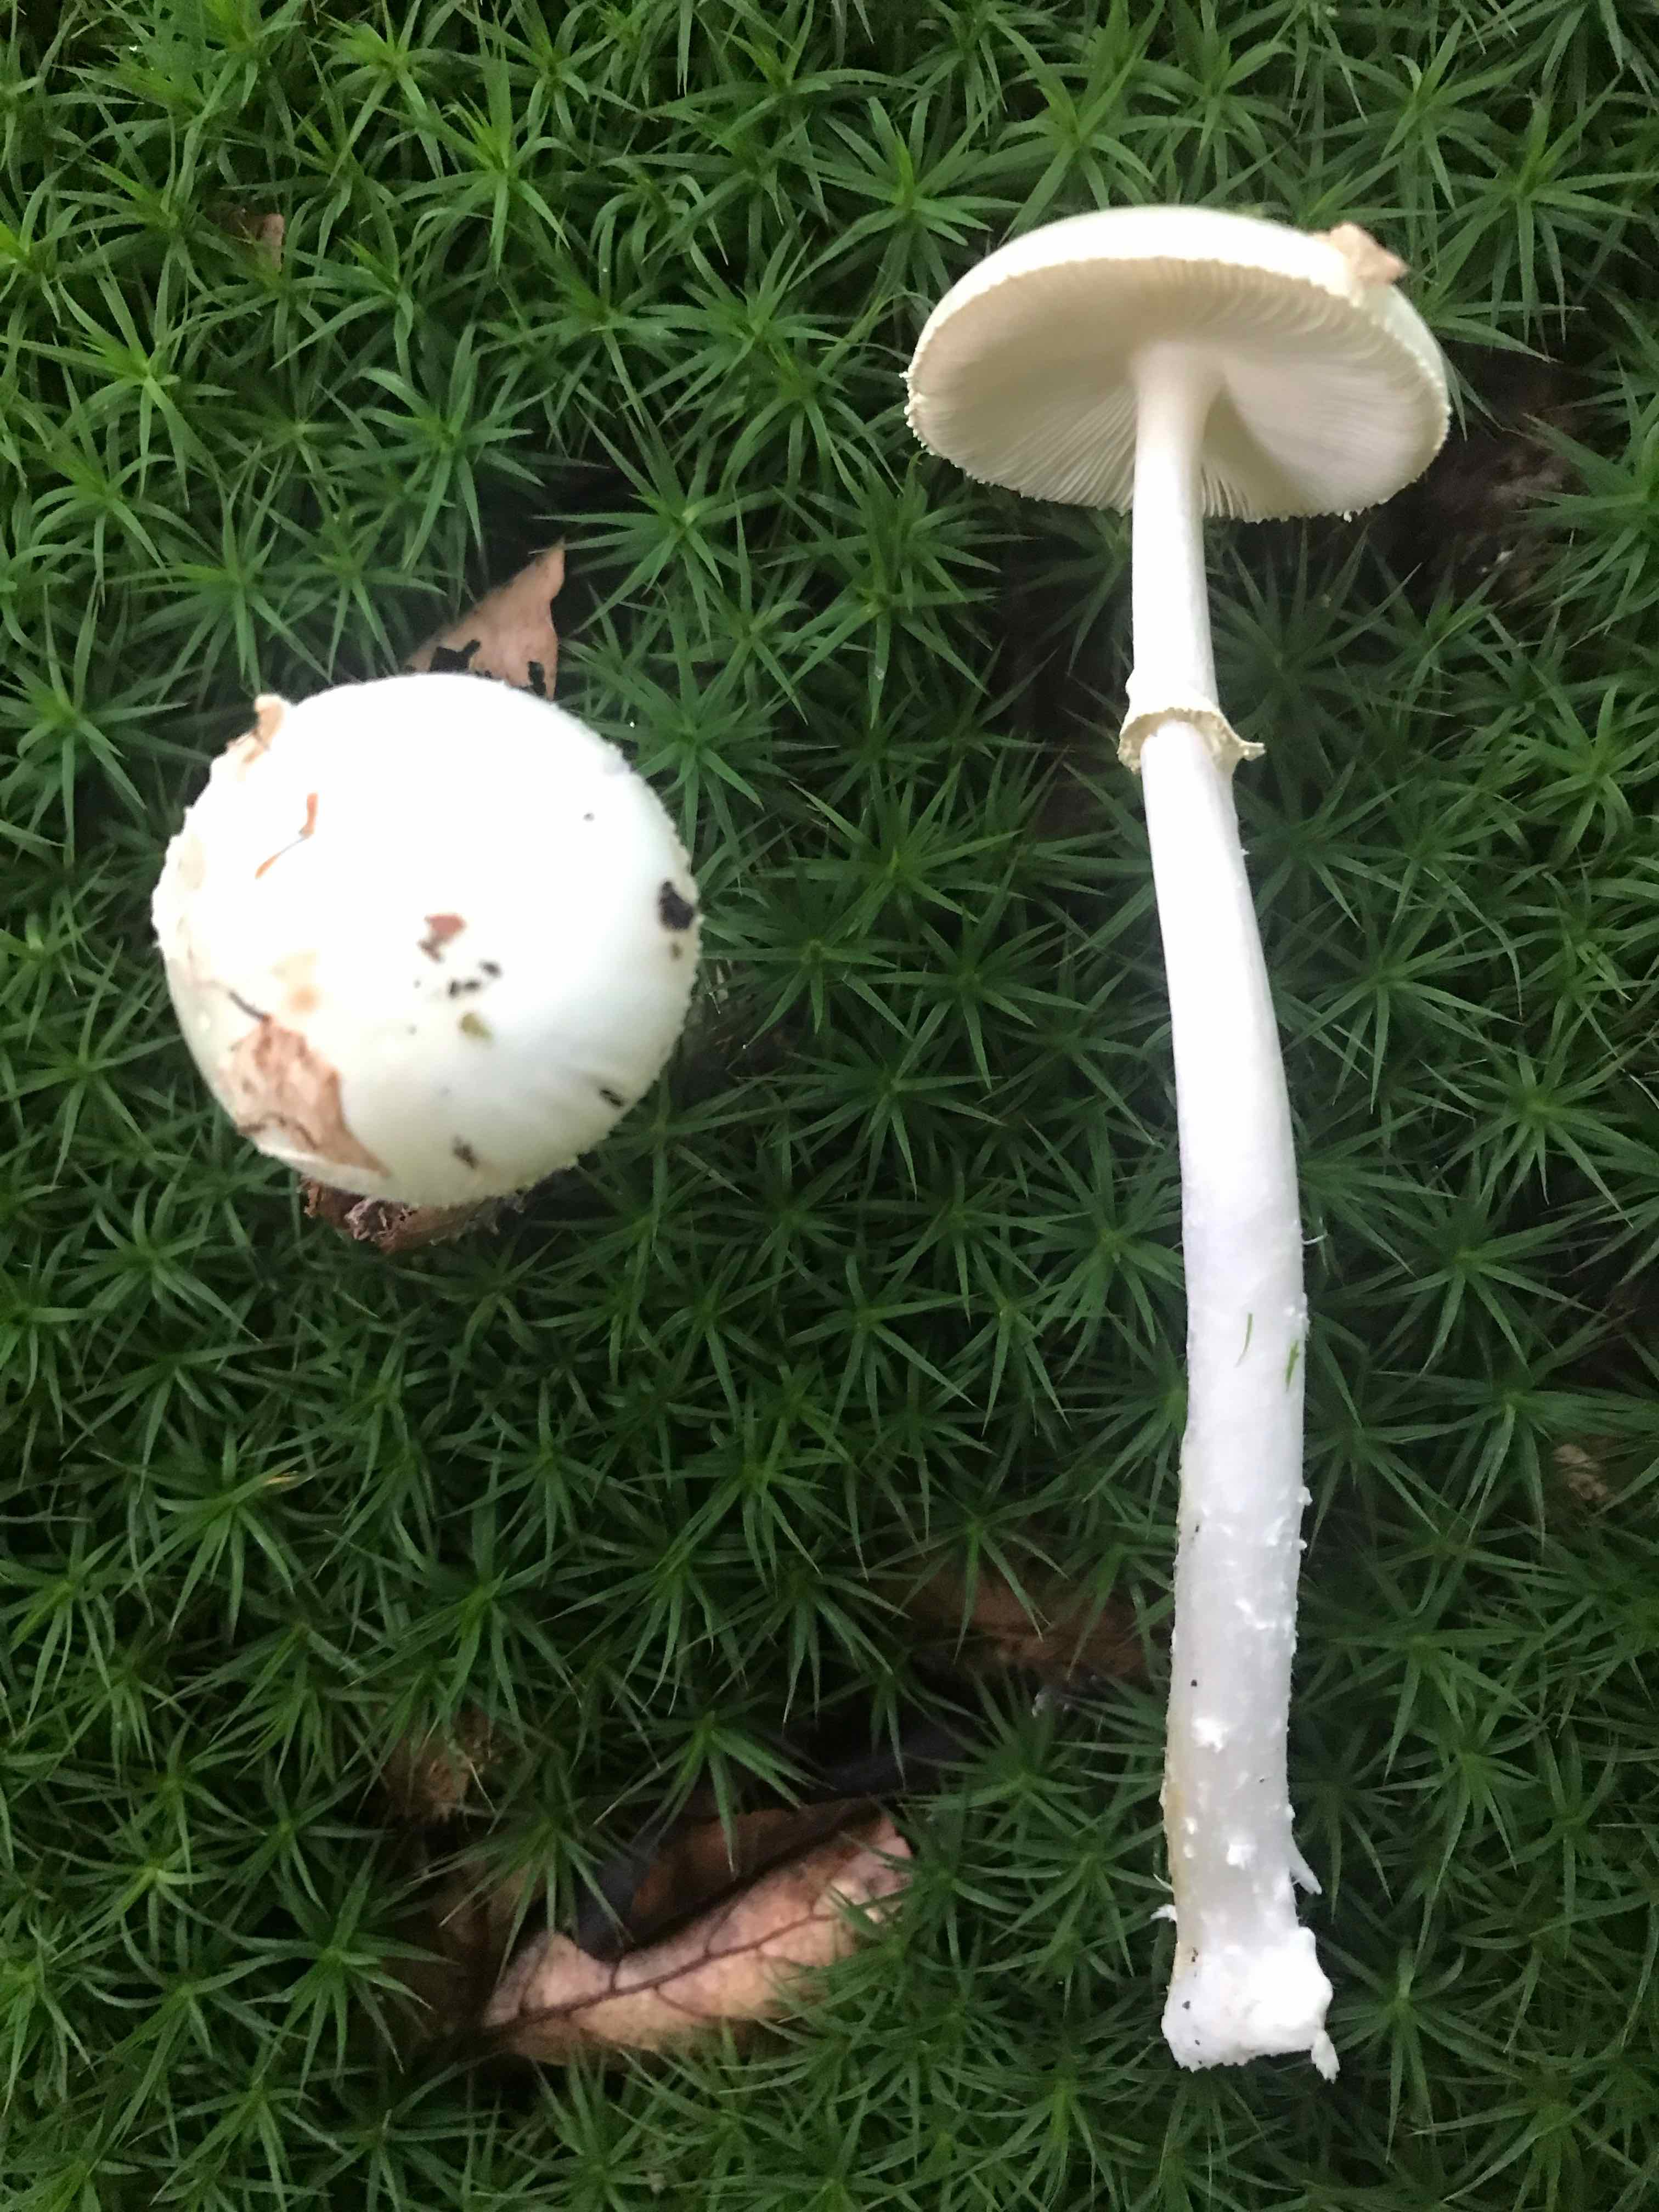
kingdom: Fungi
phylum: Basidiomycota
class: Agaricomycetes
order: Agaricales
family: Amanitaceae
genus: Amanita
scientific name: Amanita citrina
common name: kugleknoldet fluesvamp
